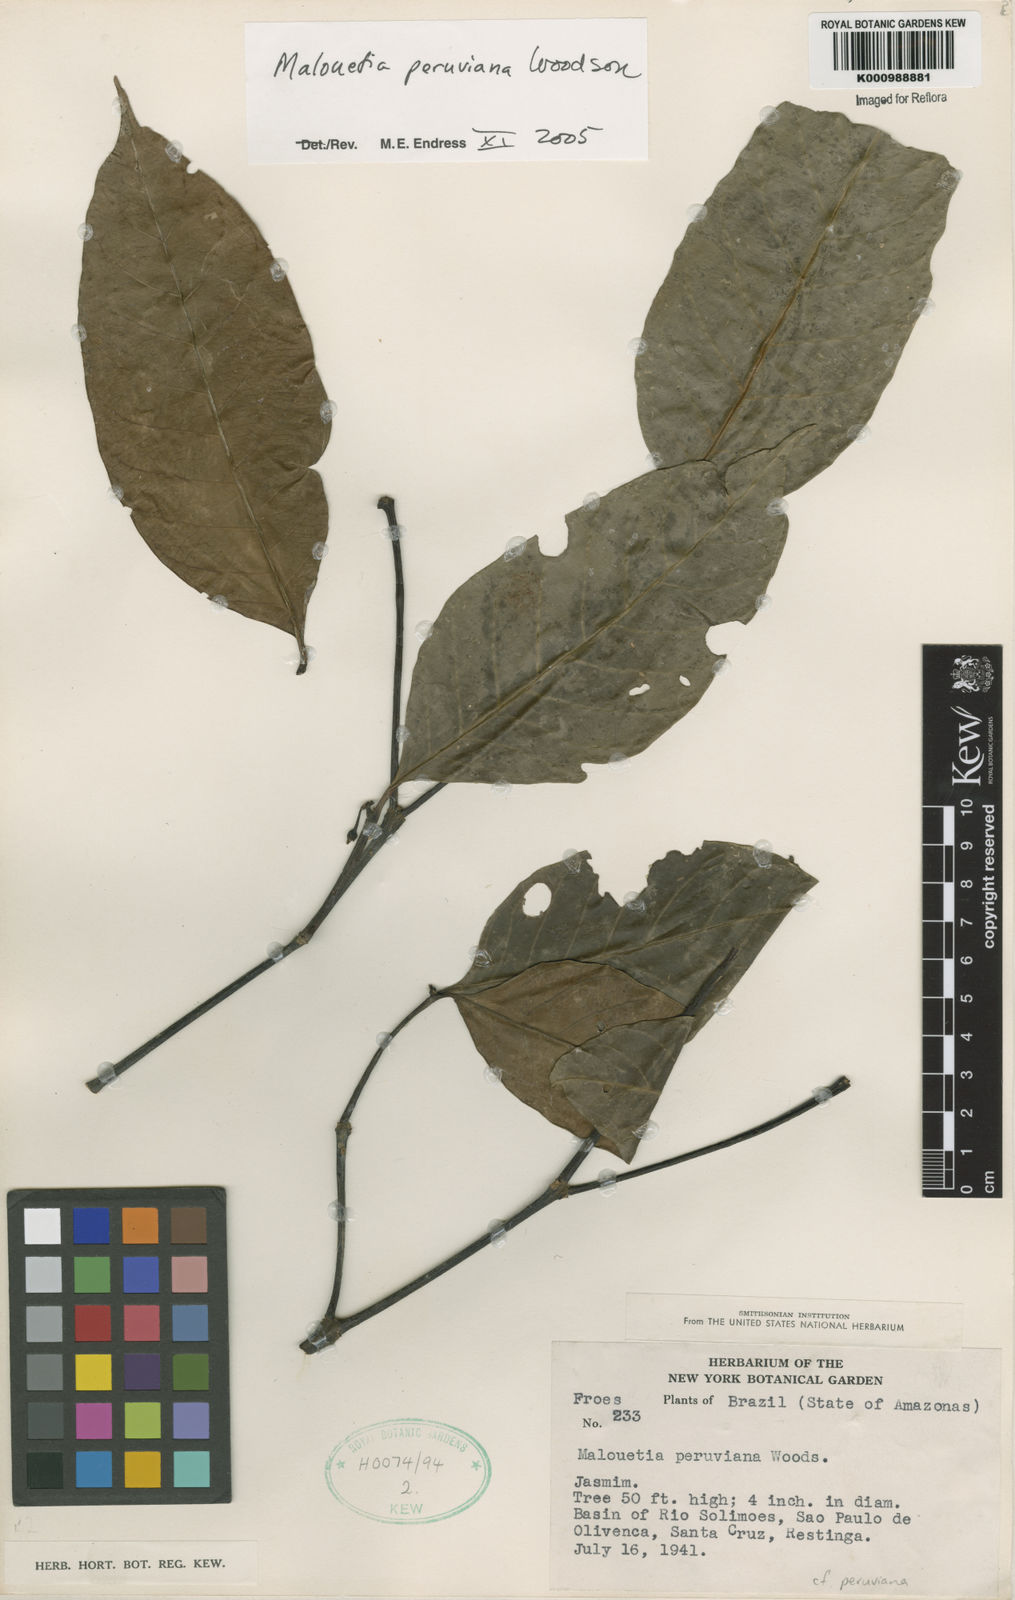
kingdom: Plantae
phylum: Tracheophyta
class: Magnoliopsida
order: Gentianales
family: Apocynaceae
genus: Malouetia
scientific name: Malouetia tamaquarina
